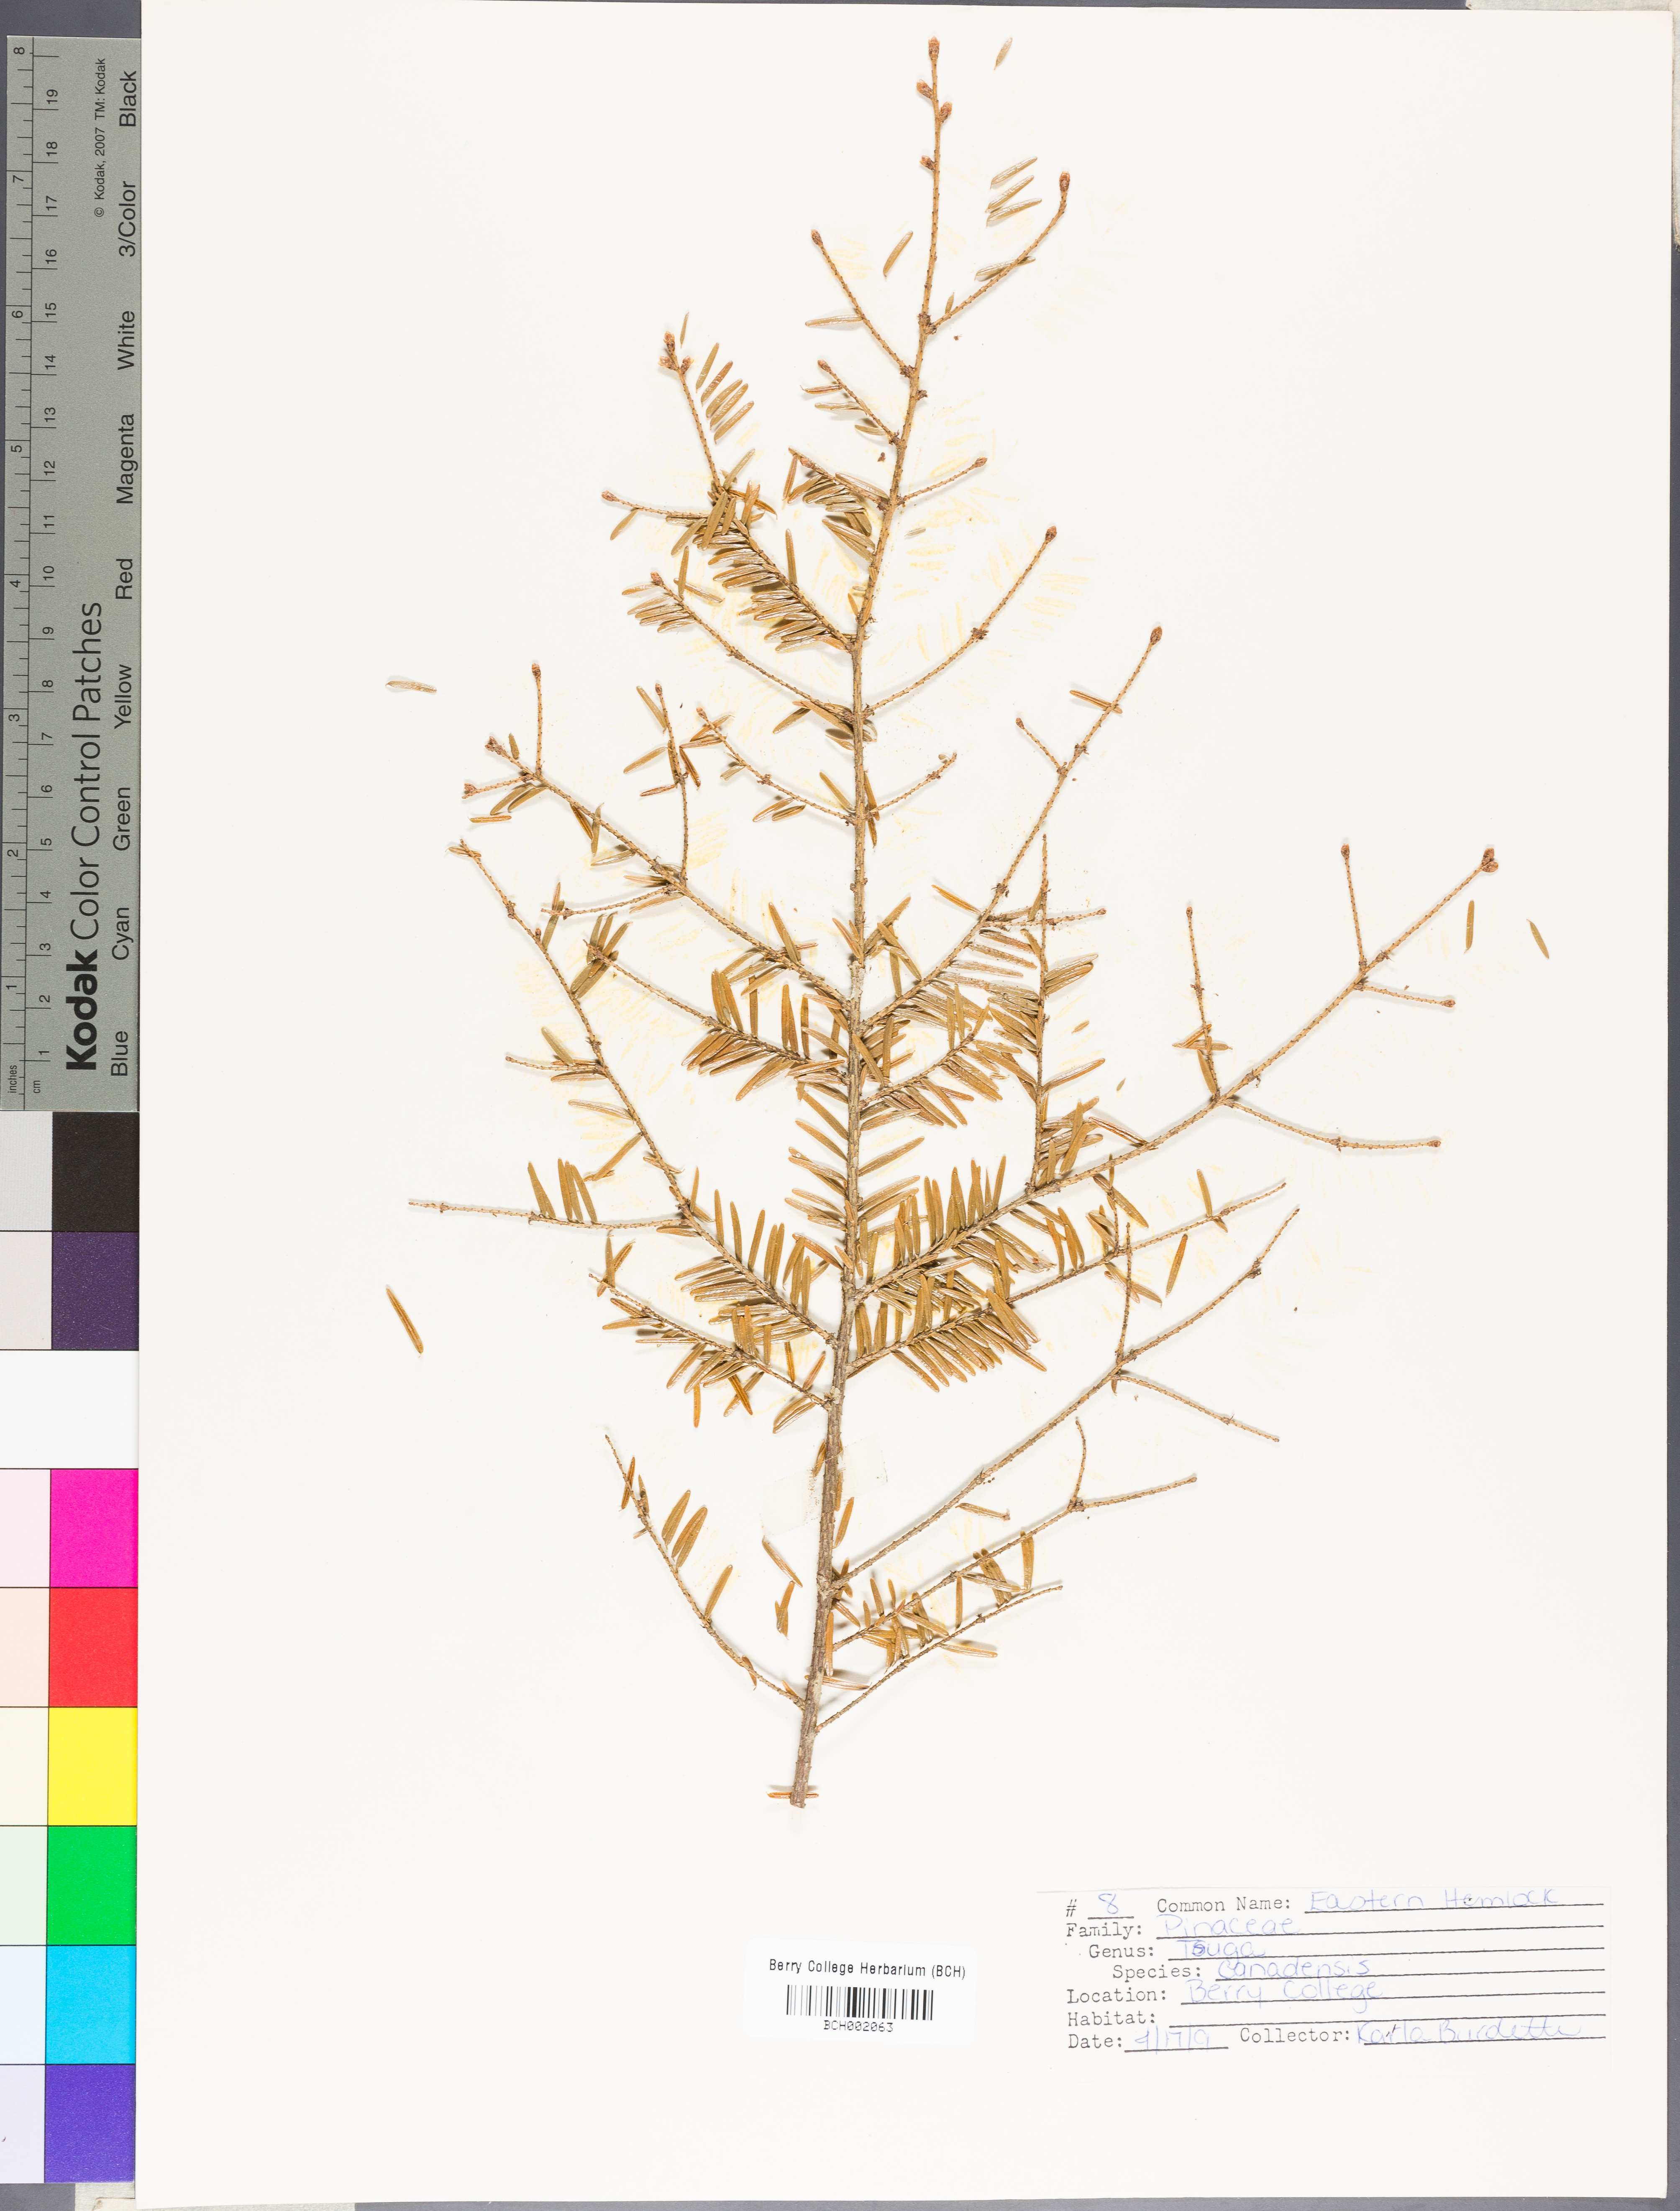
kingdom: Plantae
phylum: Tracheophyta
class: Pinopsida
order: Pinales
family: Pinaceae
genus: Tsuga
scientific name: Tsuga canadensis
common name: Eastern hemlock
